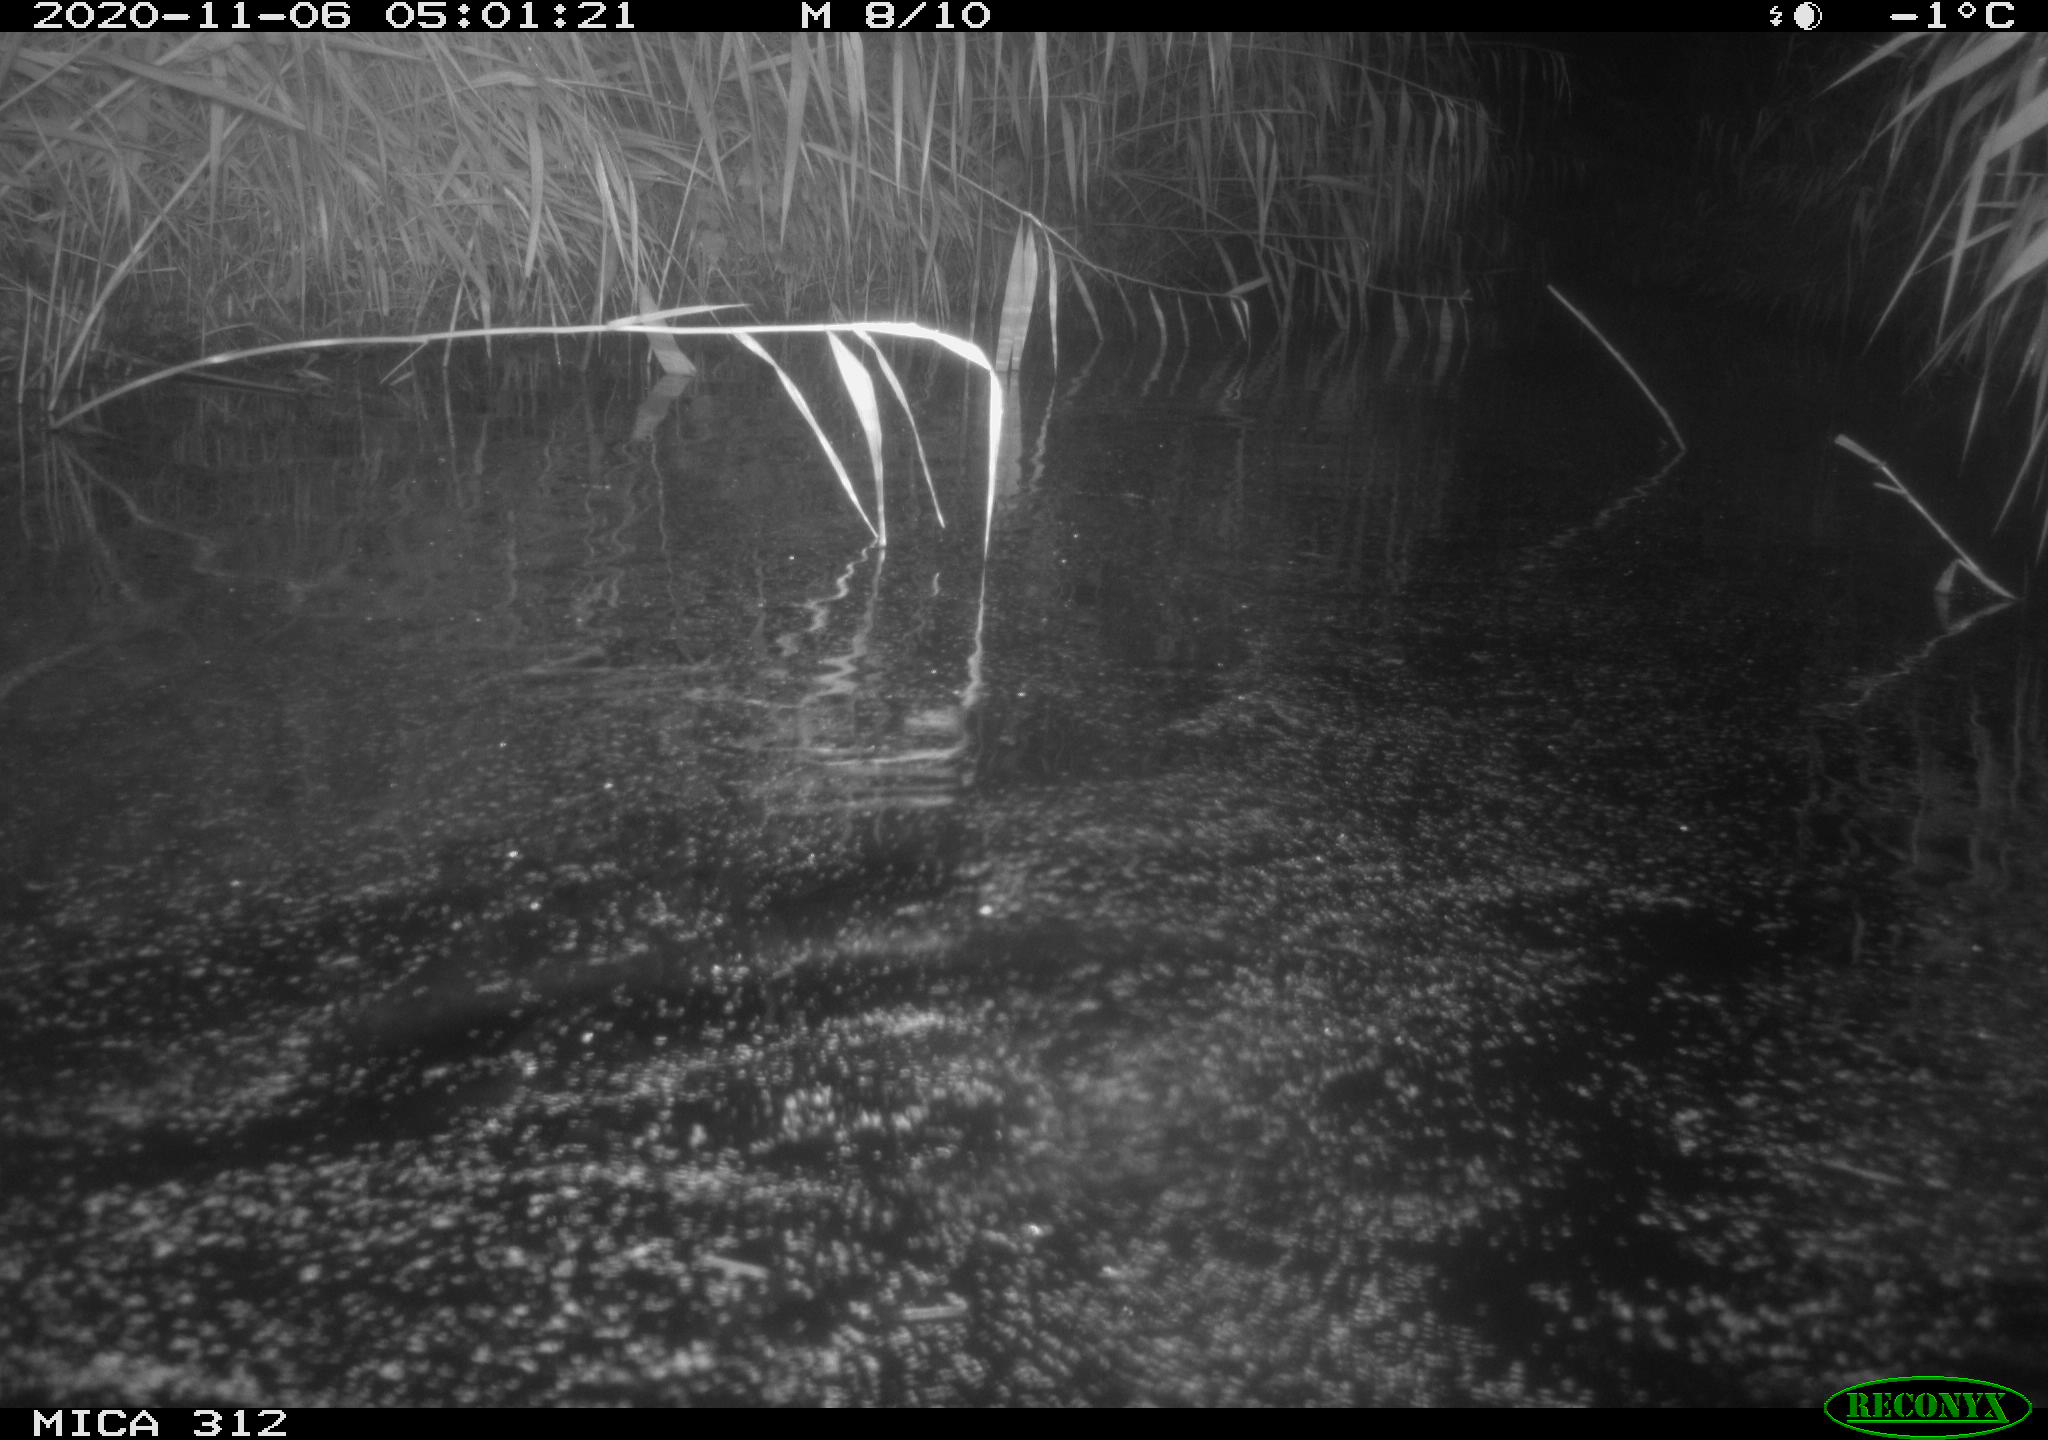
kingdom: Animalia
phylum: Chordata
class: Mammalia
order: Rodentia
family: Cricetidae
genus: Ondatra
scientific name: Ondatra zibethicus
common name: Muskrat
